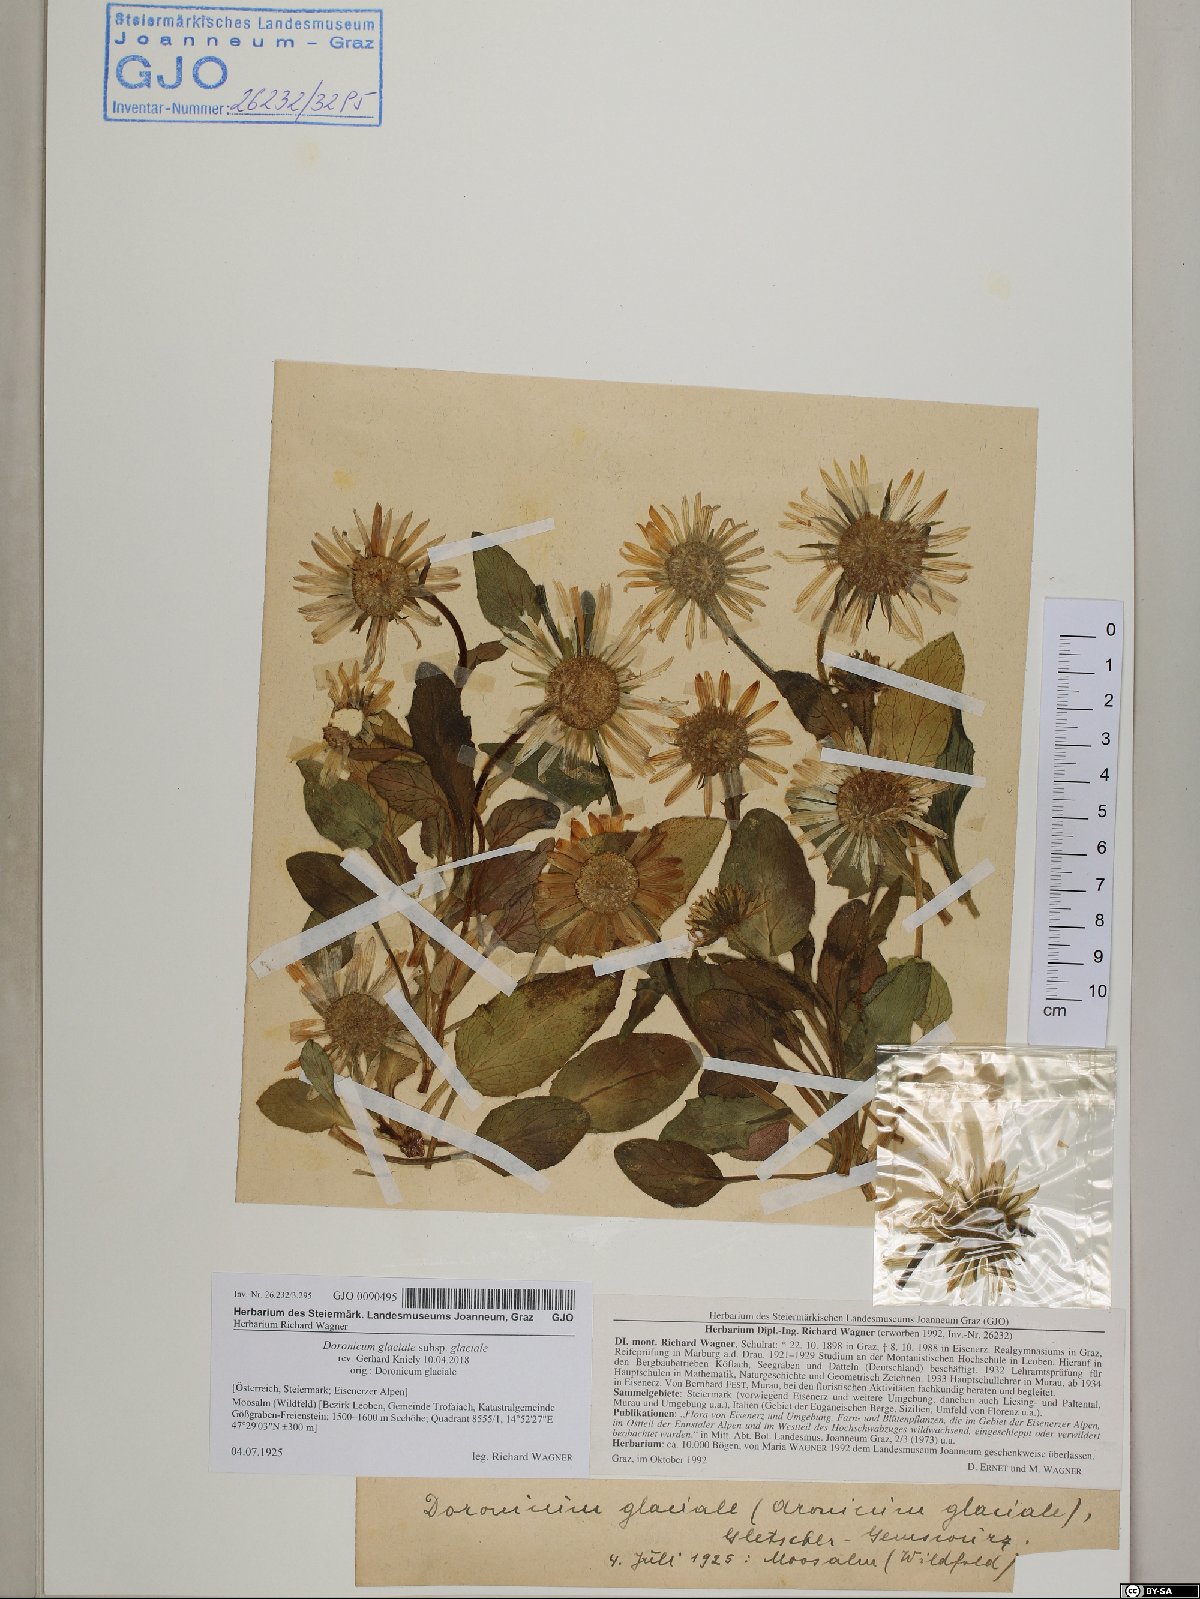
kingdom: Plantae
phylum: Tracheophyta
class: Magnoliopsida
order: Asterales
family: Asteraceae
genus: Doronicum
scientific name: Doronicum glaciale
